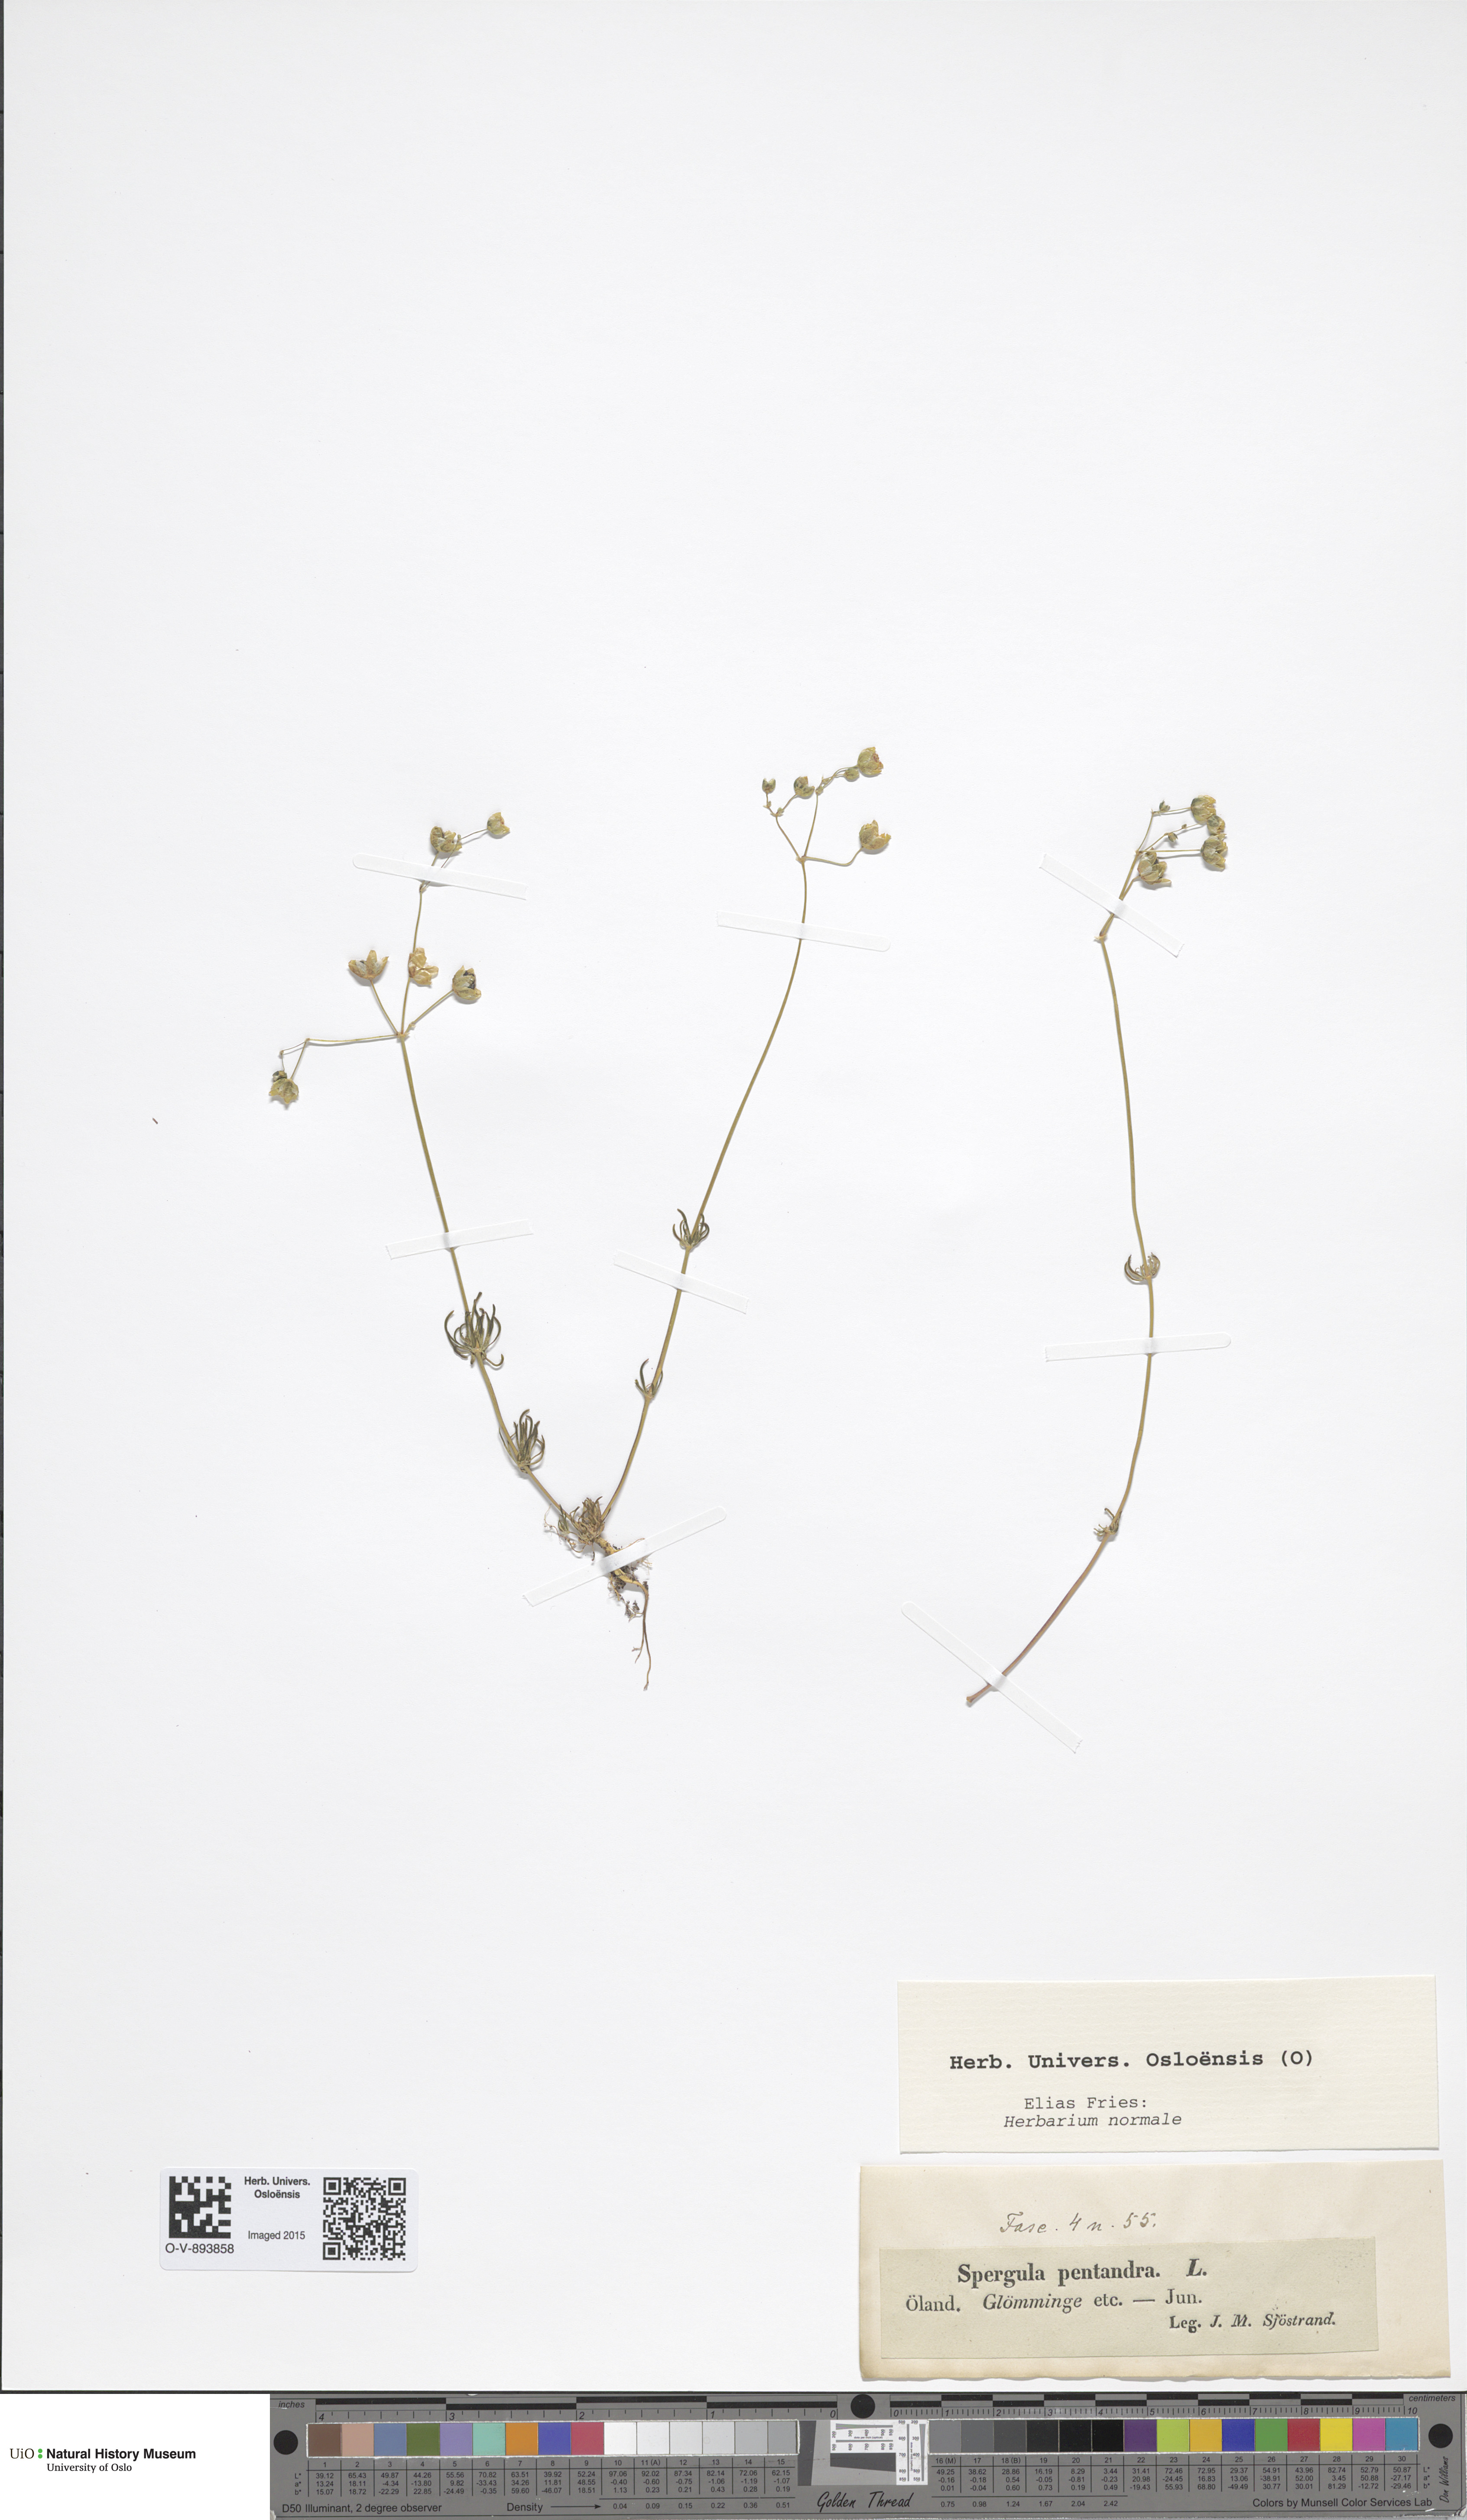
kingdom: Plantae
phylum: Tracheophyta
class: Magnoliopsida
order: Caryophyllales
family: Caryophyllaceae
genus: Spergula
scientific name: Spergula morisonii
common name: Pearlwort spurrey
